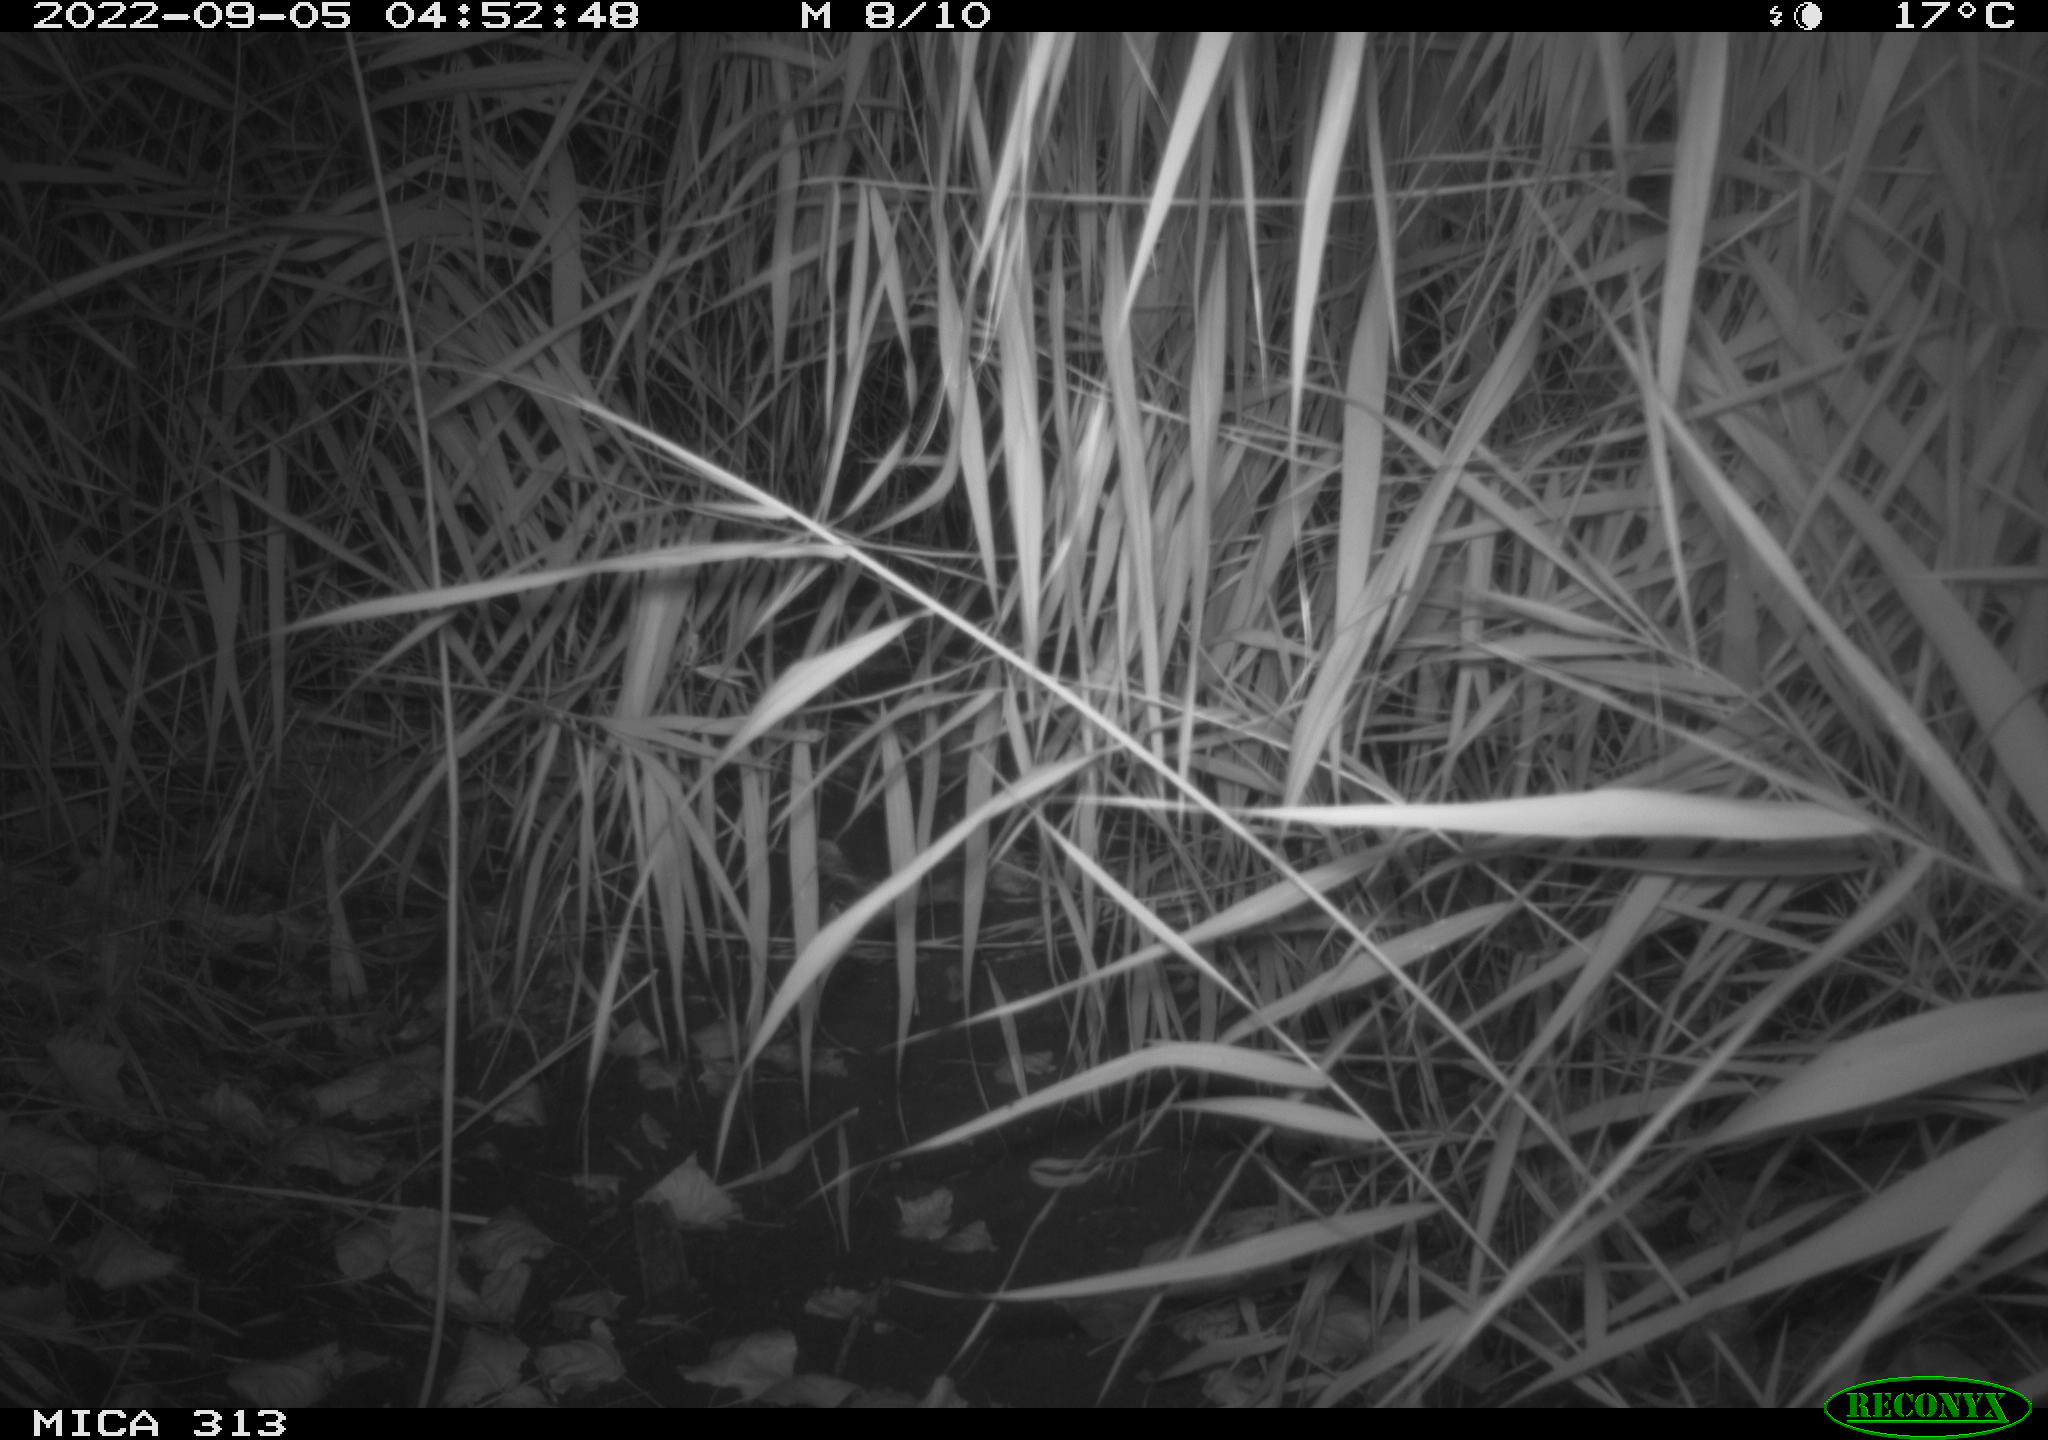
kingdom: Animalia
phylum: Chordata
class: Mammalia
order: Rodentia
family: Muridae
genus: Rattus
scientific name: Rattus norvegicus
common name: Brown rat
